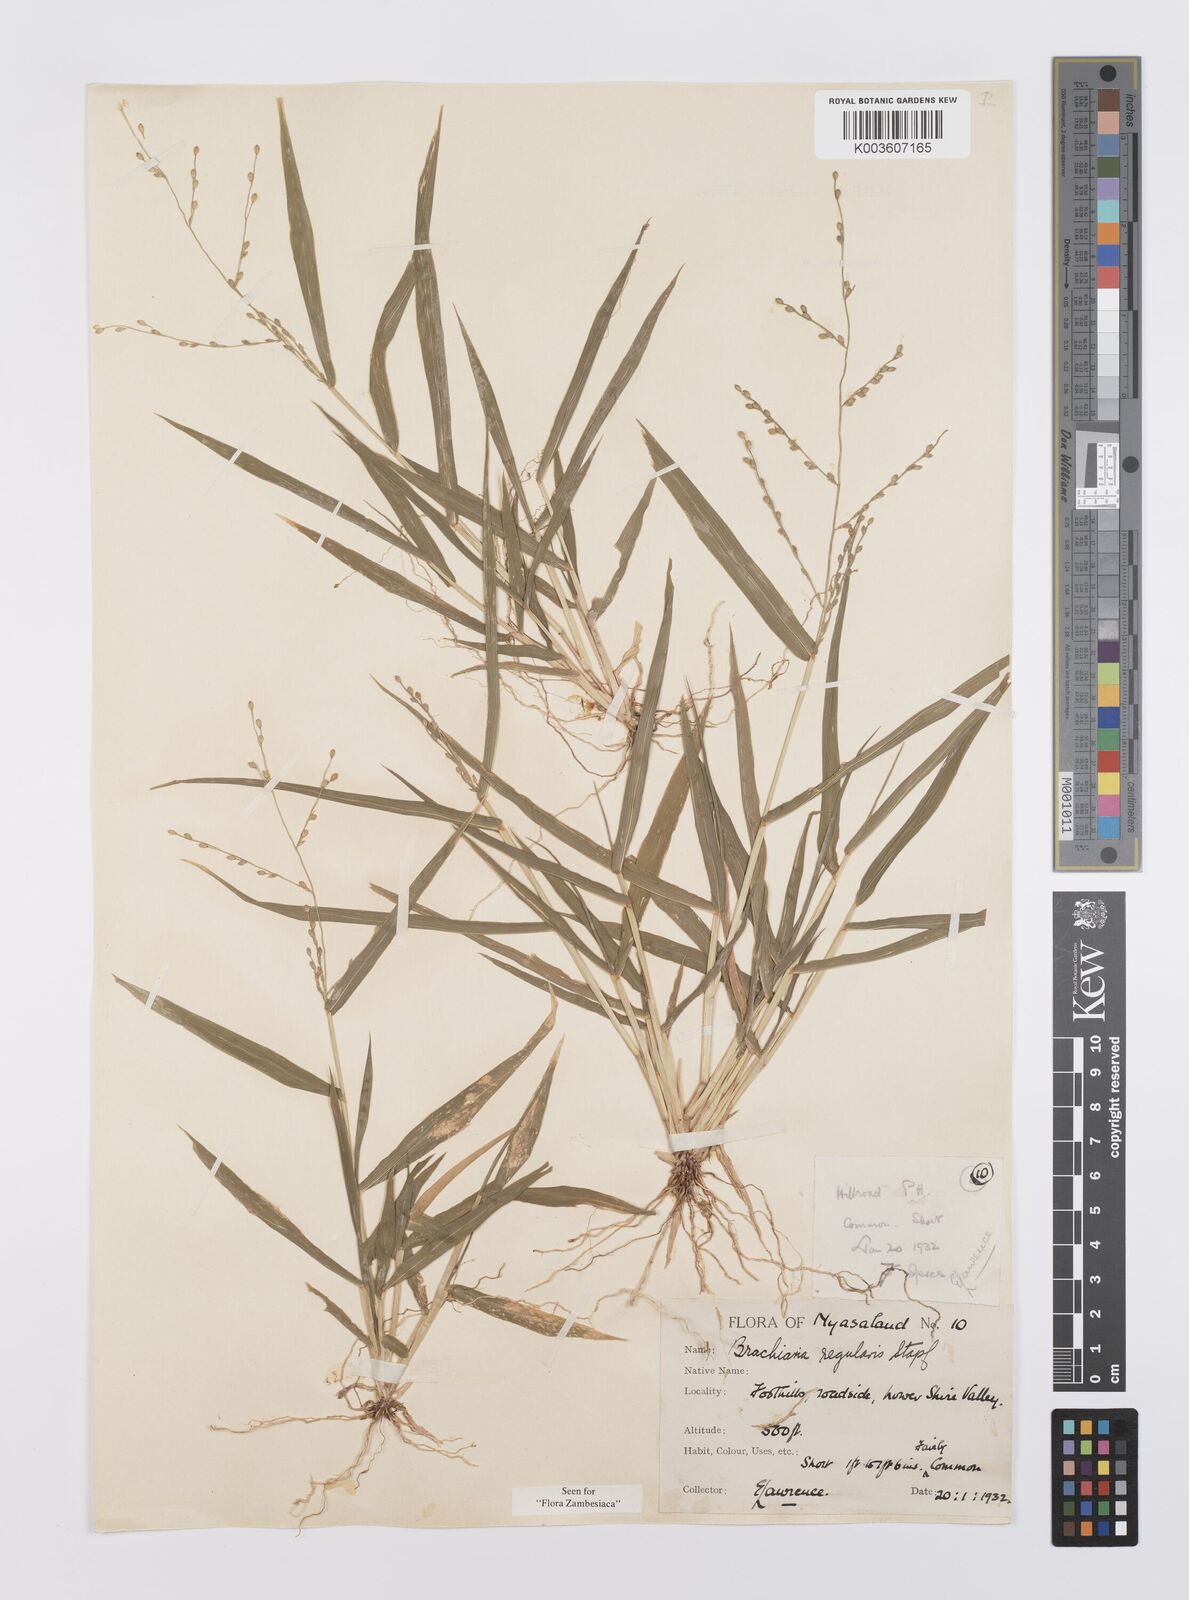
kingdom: Plantae
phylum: Tracheophyta
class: Liliopsida
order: Poales
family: Poaceae
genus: Urochloa
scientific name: Urochloa deflexa
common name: Guinea millet
